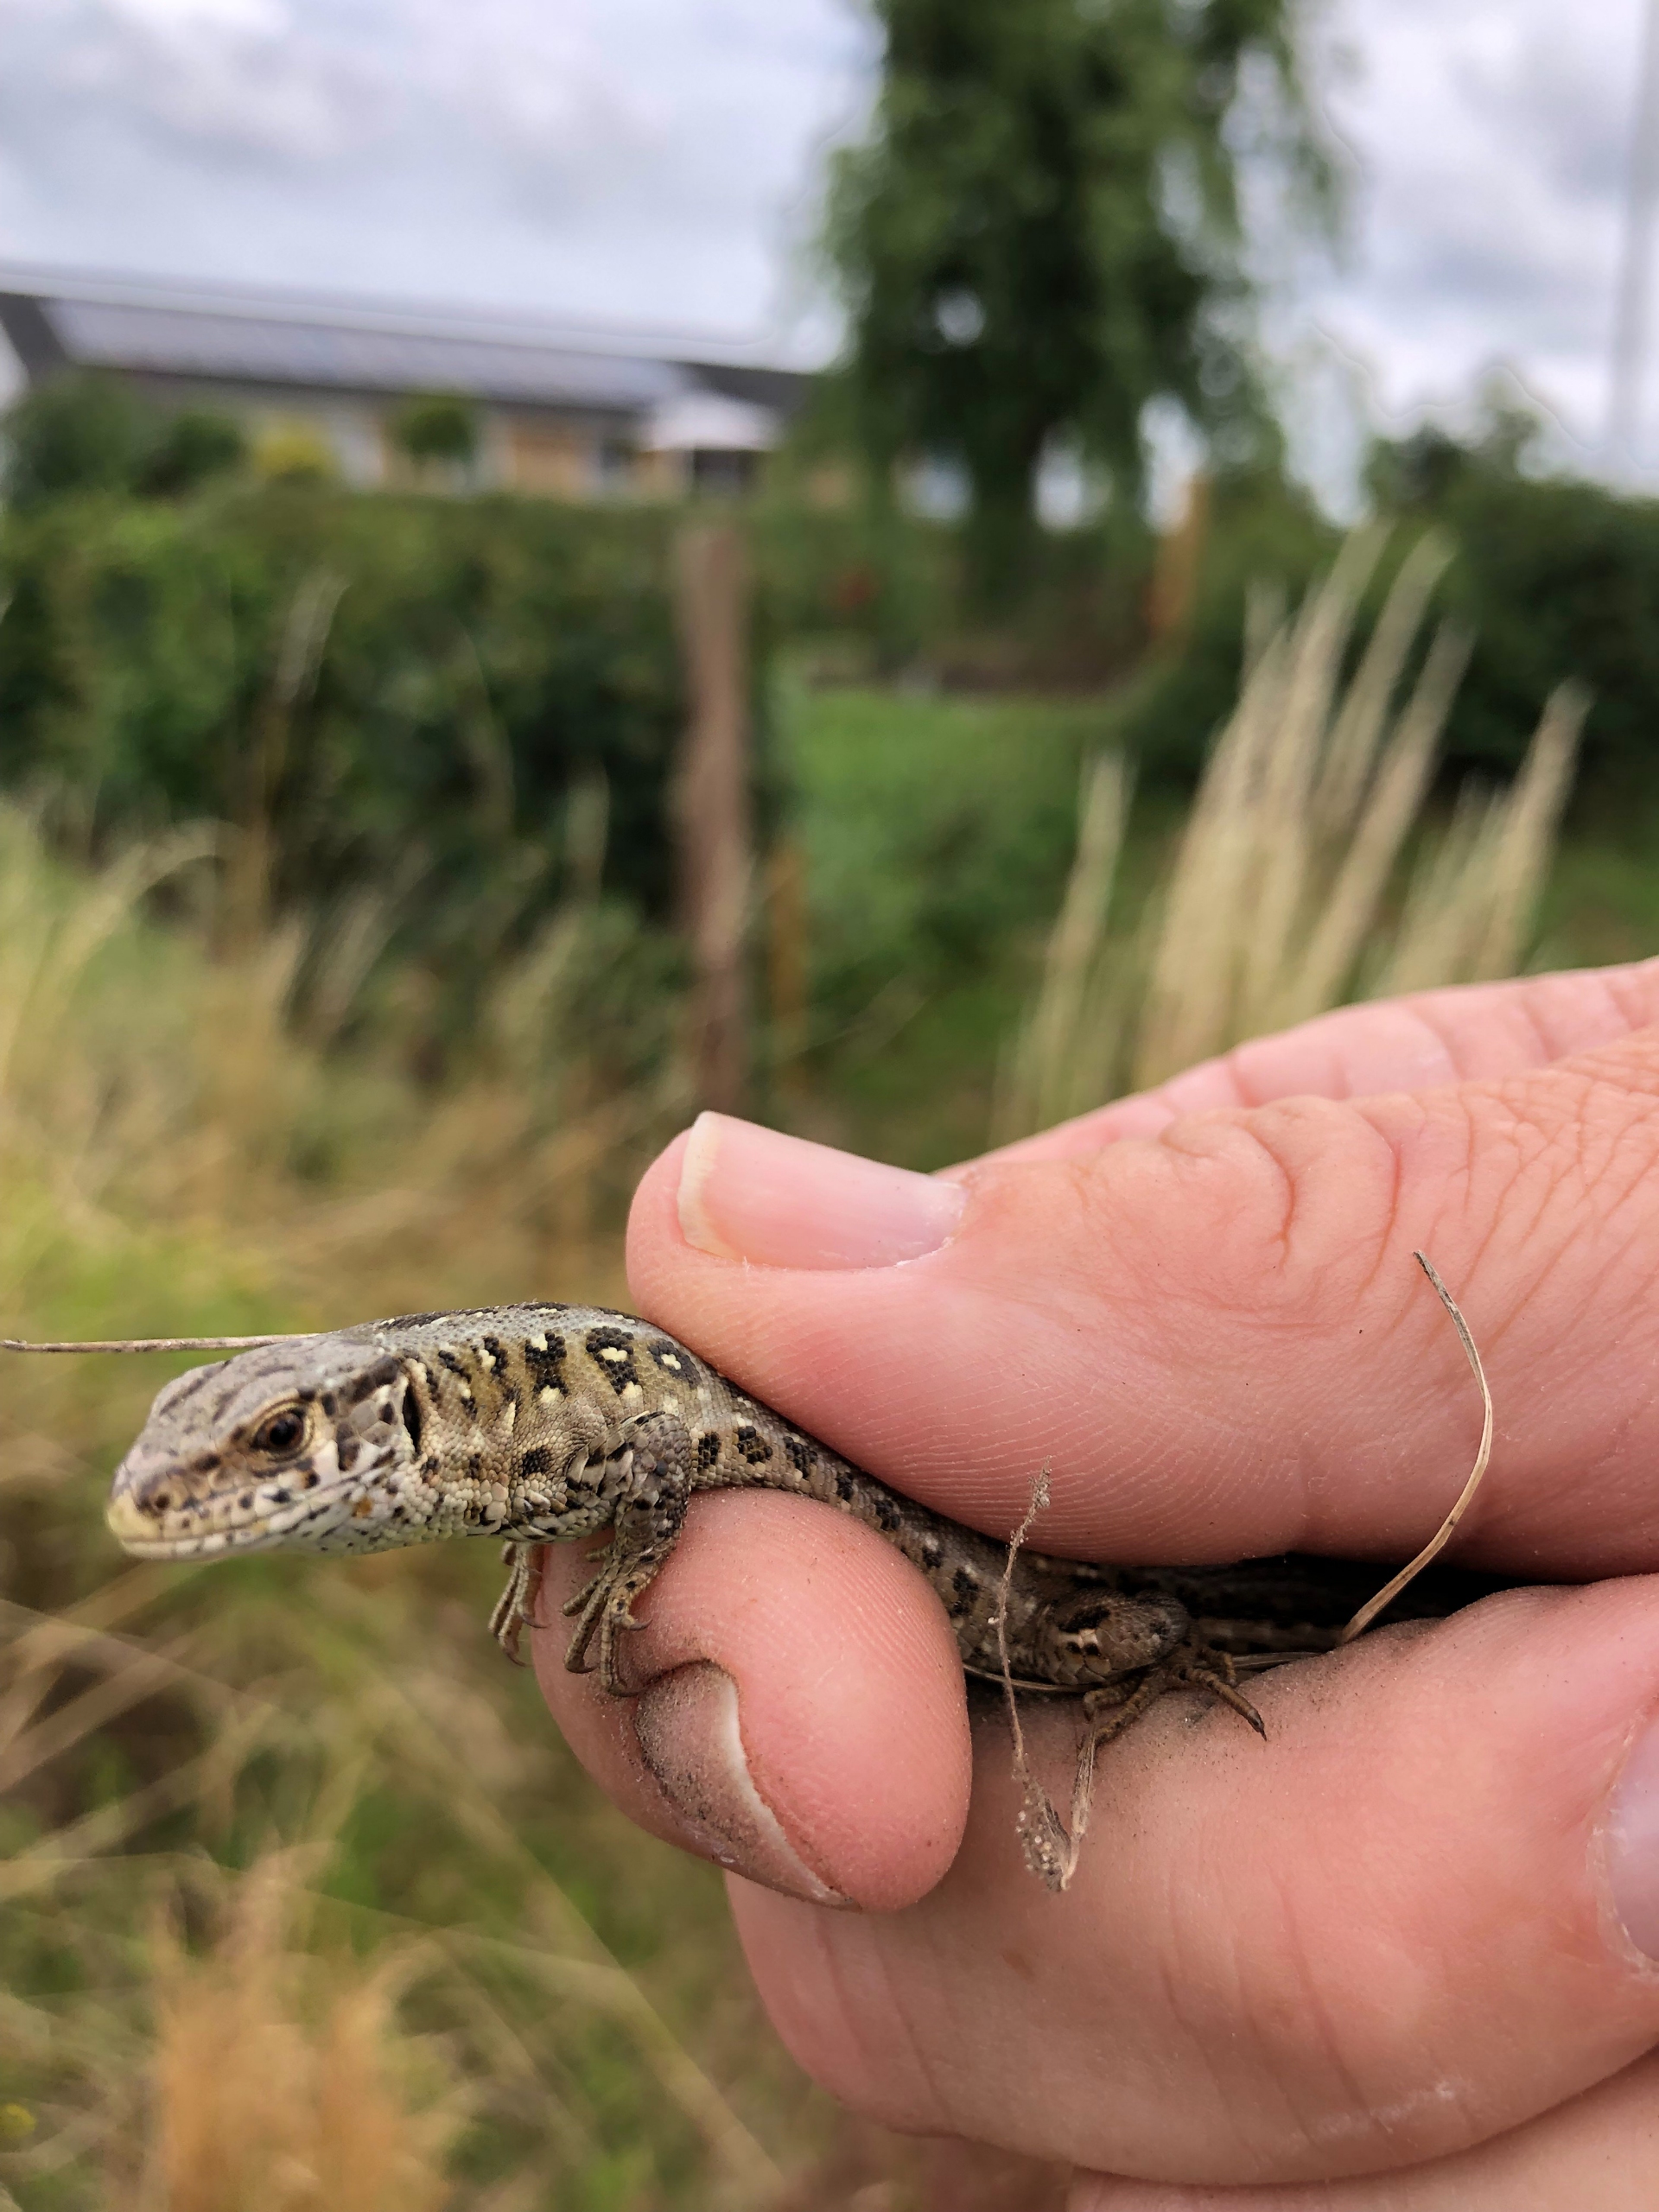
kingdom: Animalia
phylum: Chordata
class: Squamata
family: Lacertidae
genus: Lacerta
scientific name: Lacerta agilis
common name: Markfirben
